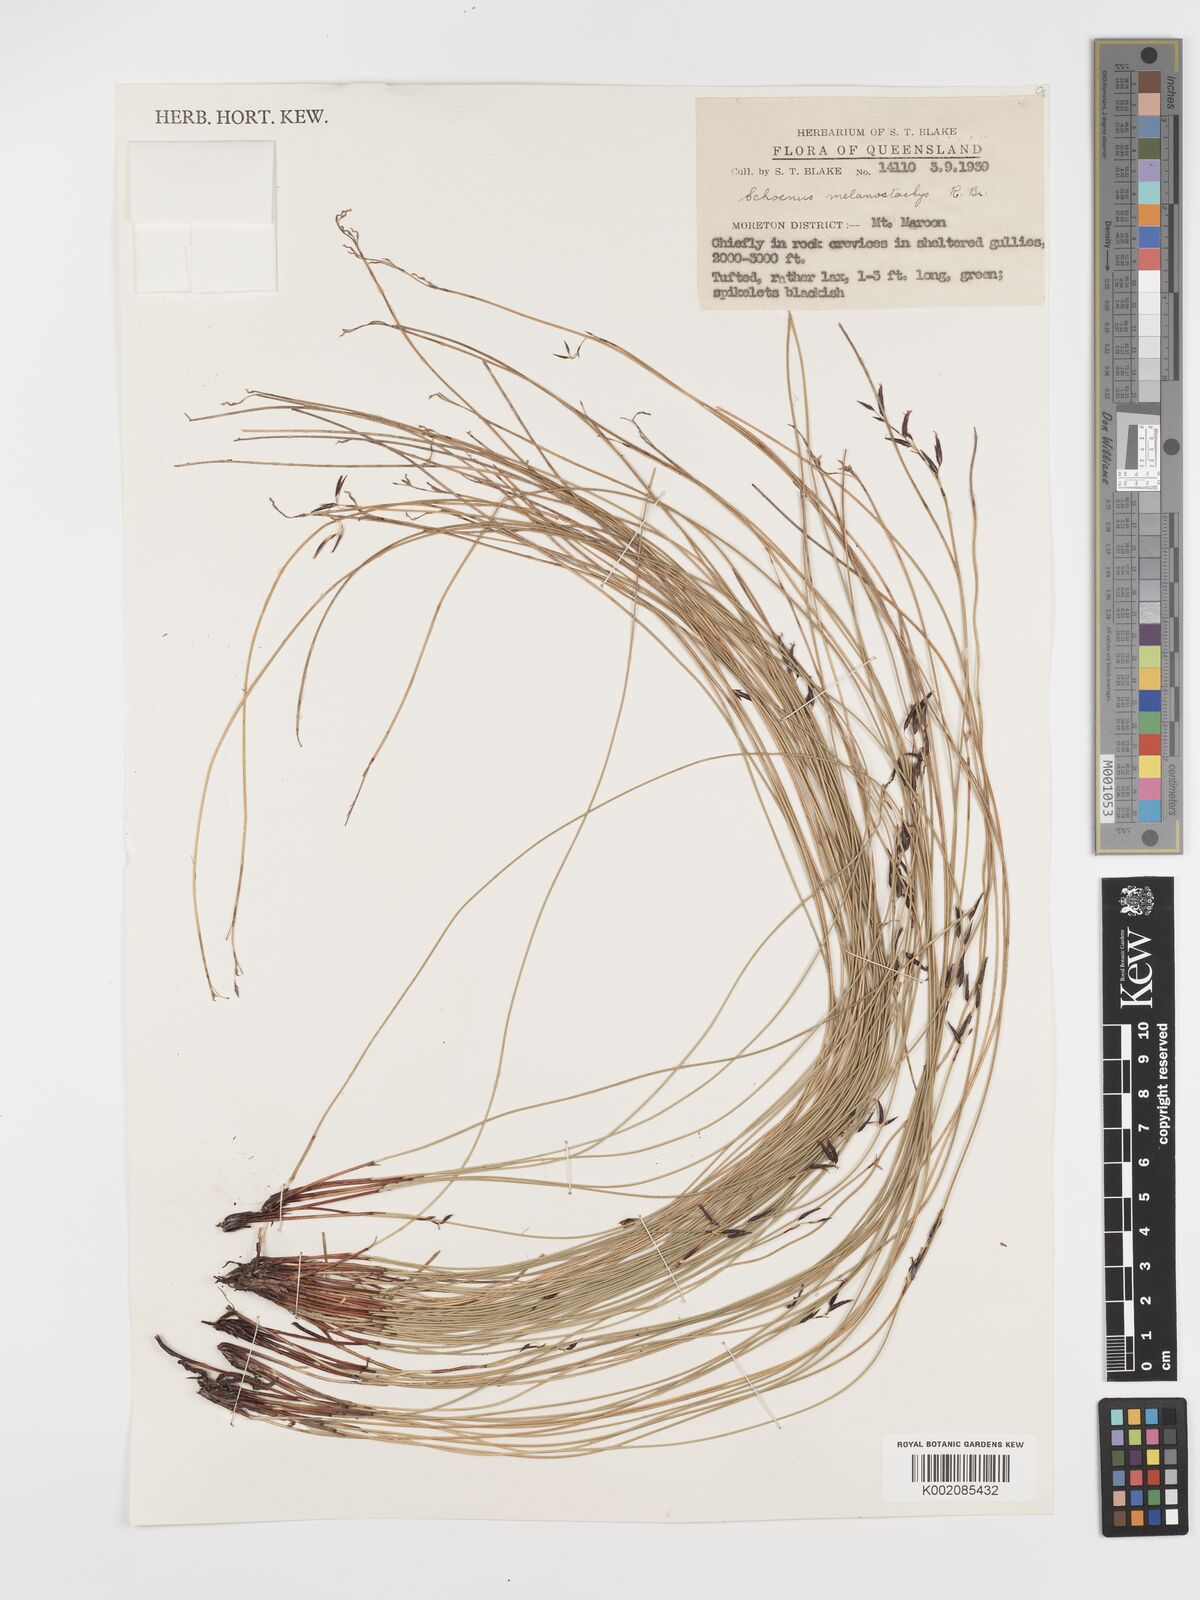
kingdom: Plantae
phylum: Tracheophyta
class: Liliopsida
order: Poales
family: Cyperaceae
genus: Schoenus
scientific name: Schoenus melanostachys
